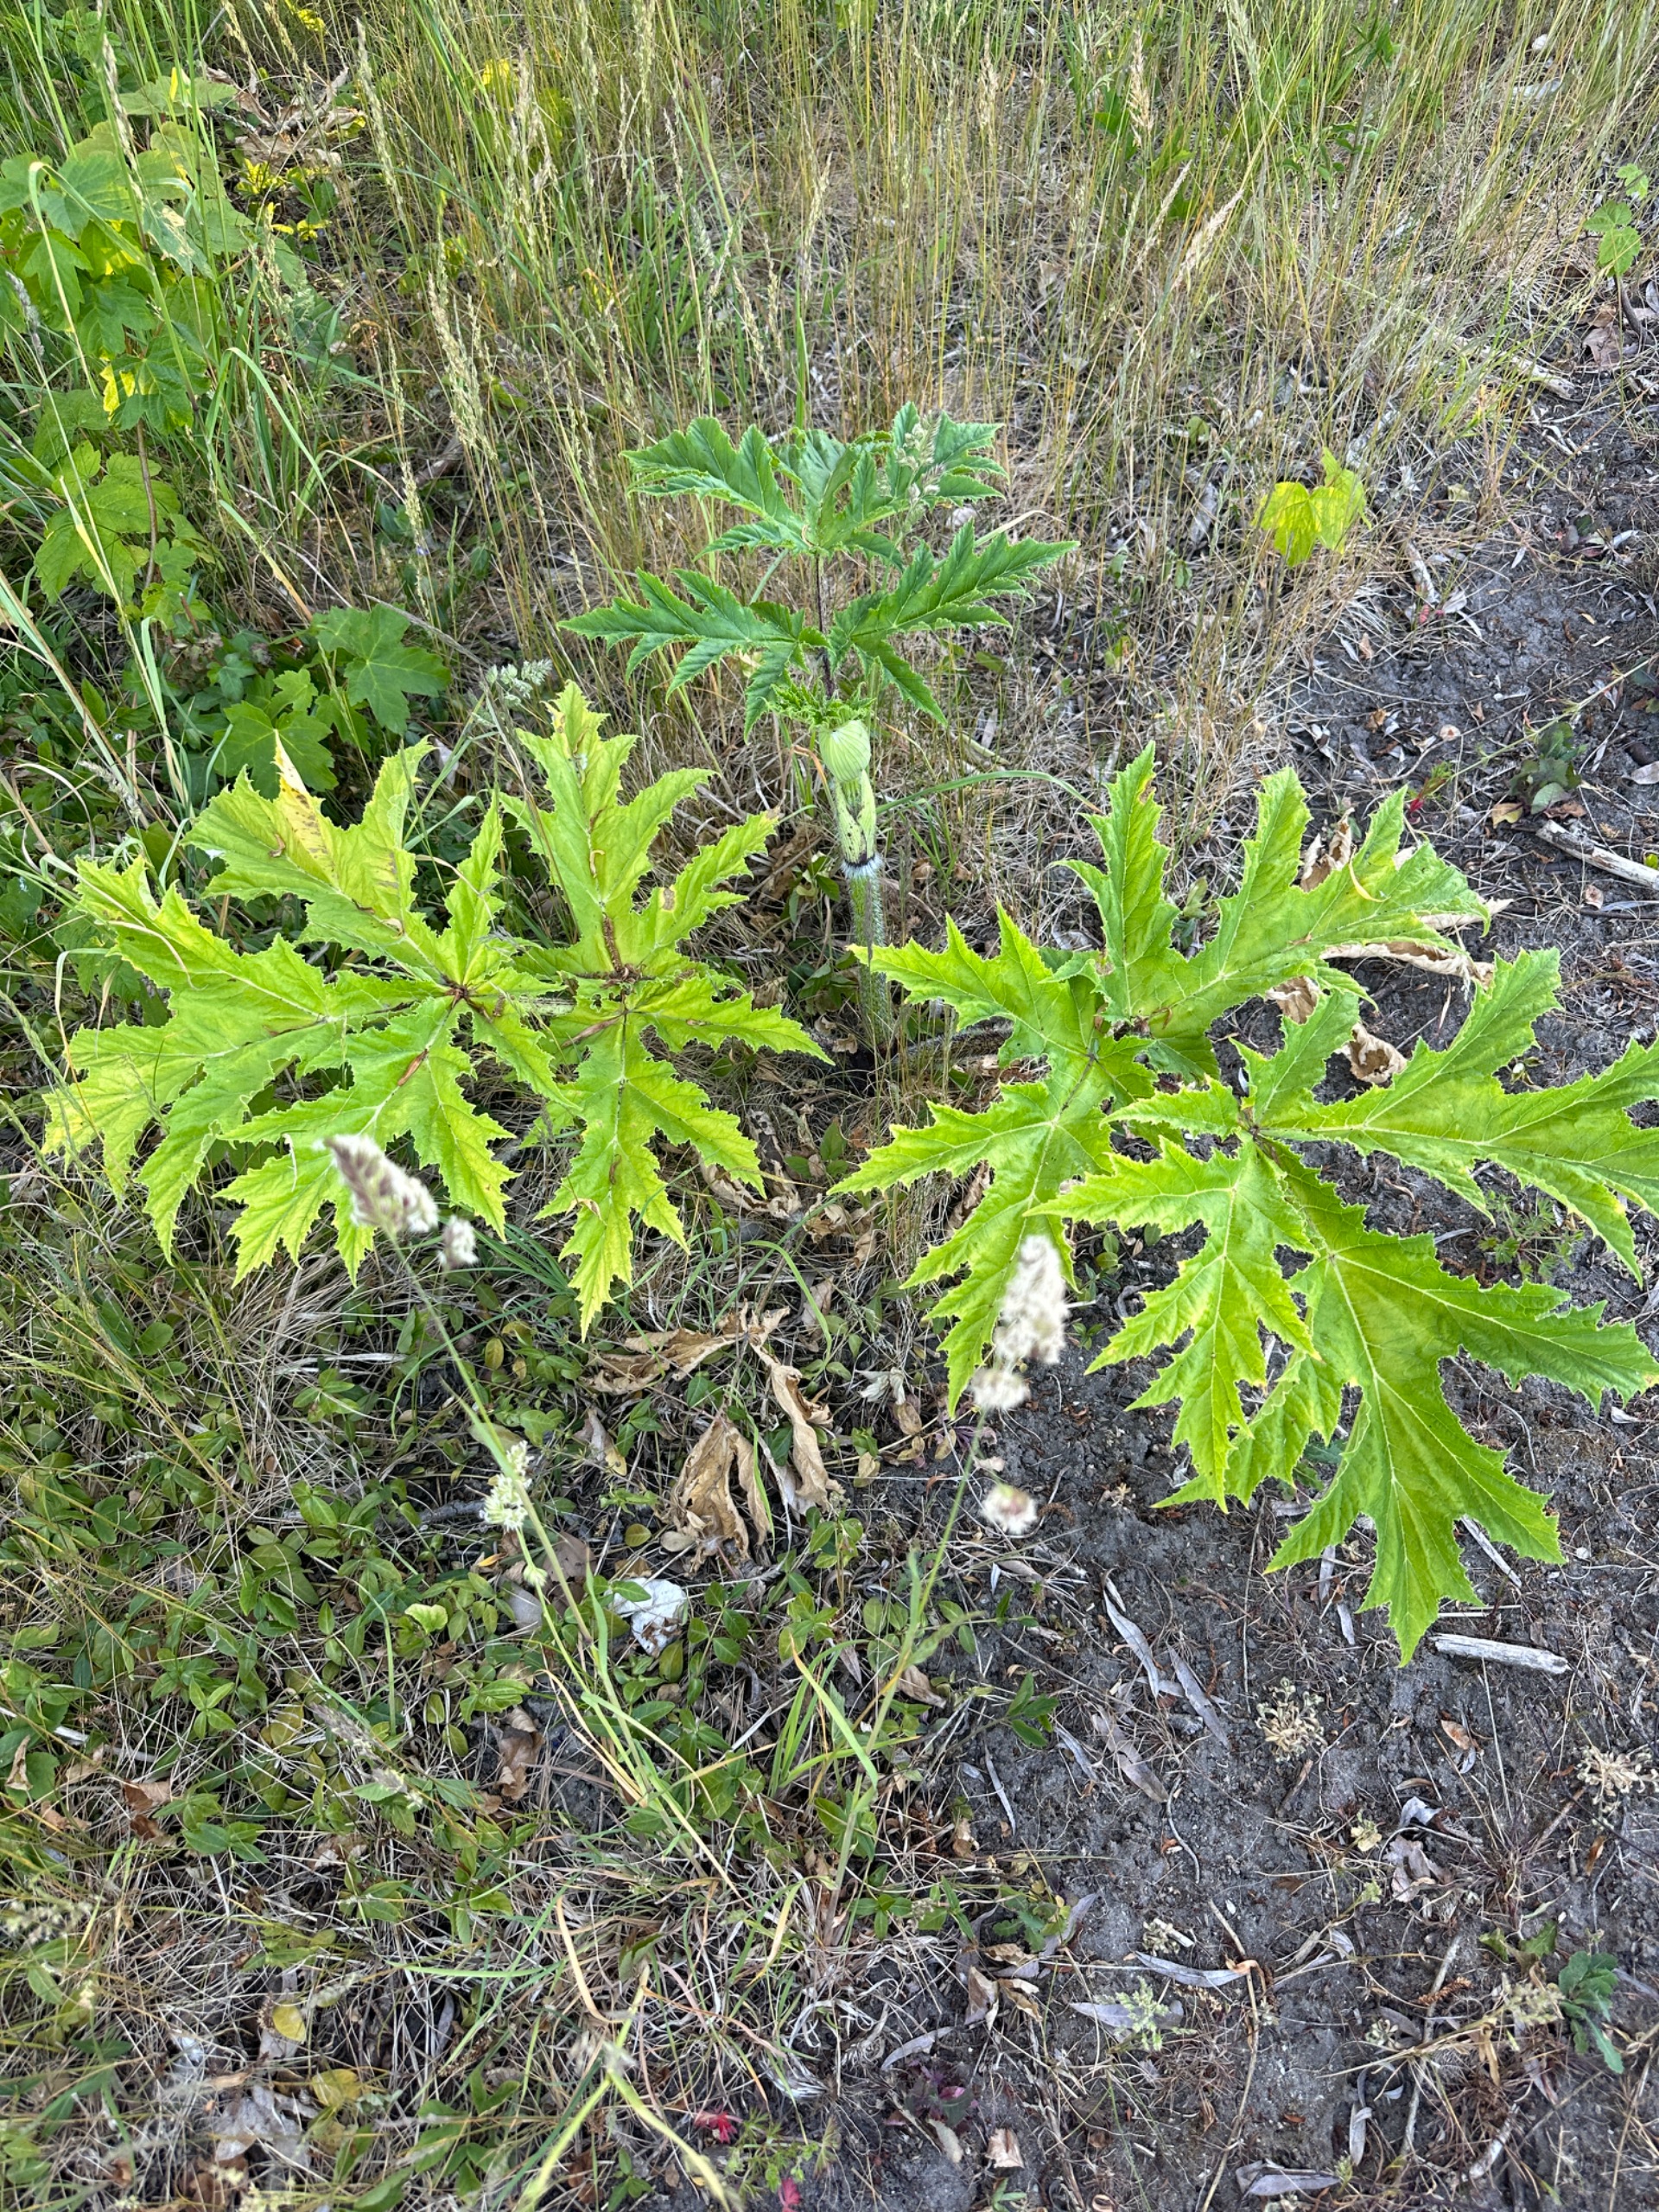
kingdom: Plantae
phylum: Tracheophyta
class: Magnoliopsida
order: Apiales
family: Apiaceae
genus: Heracleum
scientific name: Heracleum mantegazzianum
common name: Kæmpe-bjørneklo
